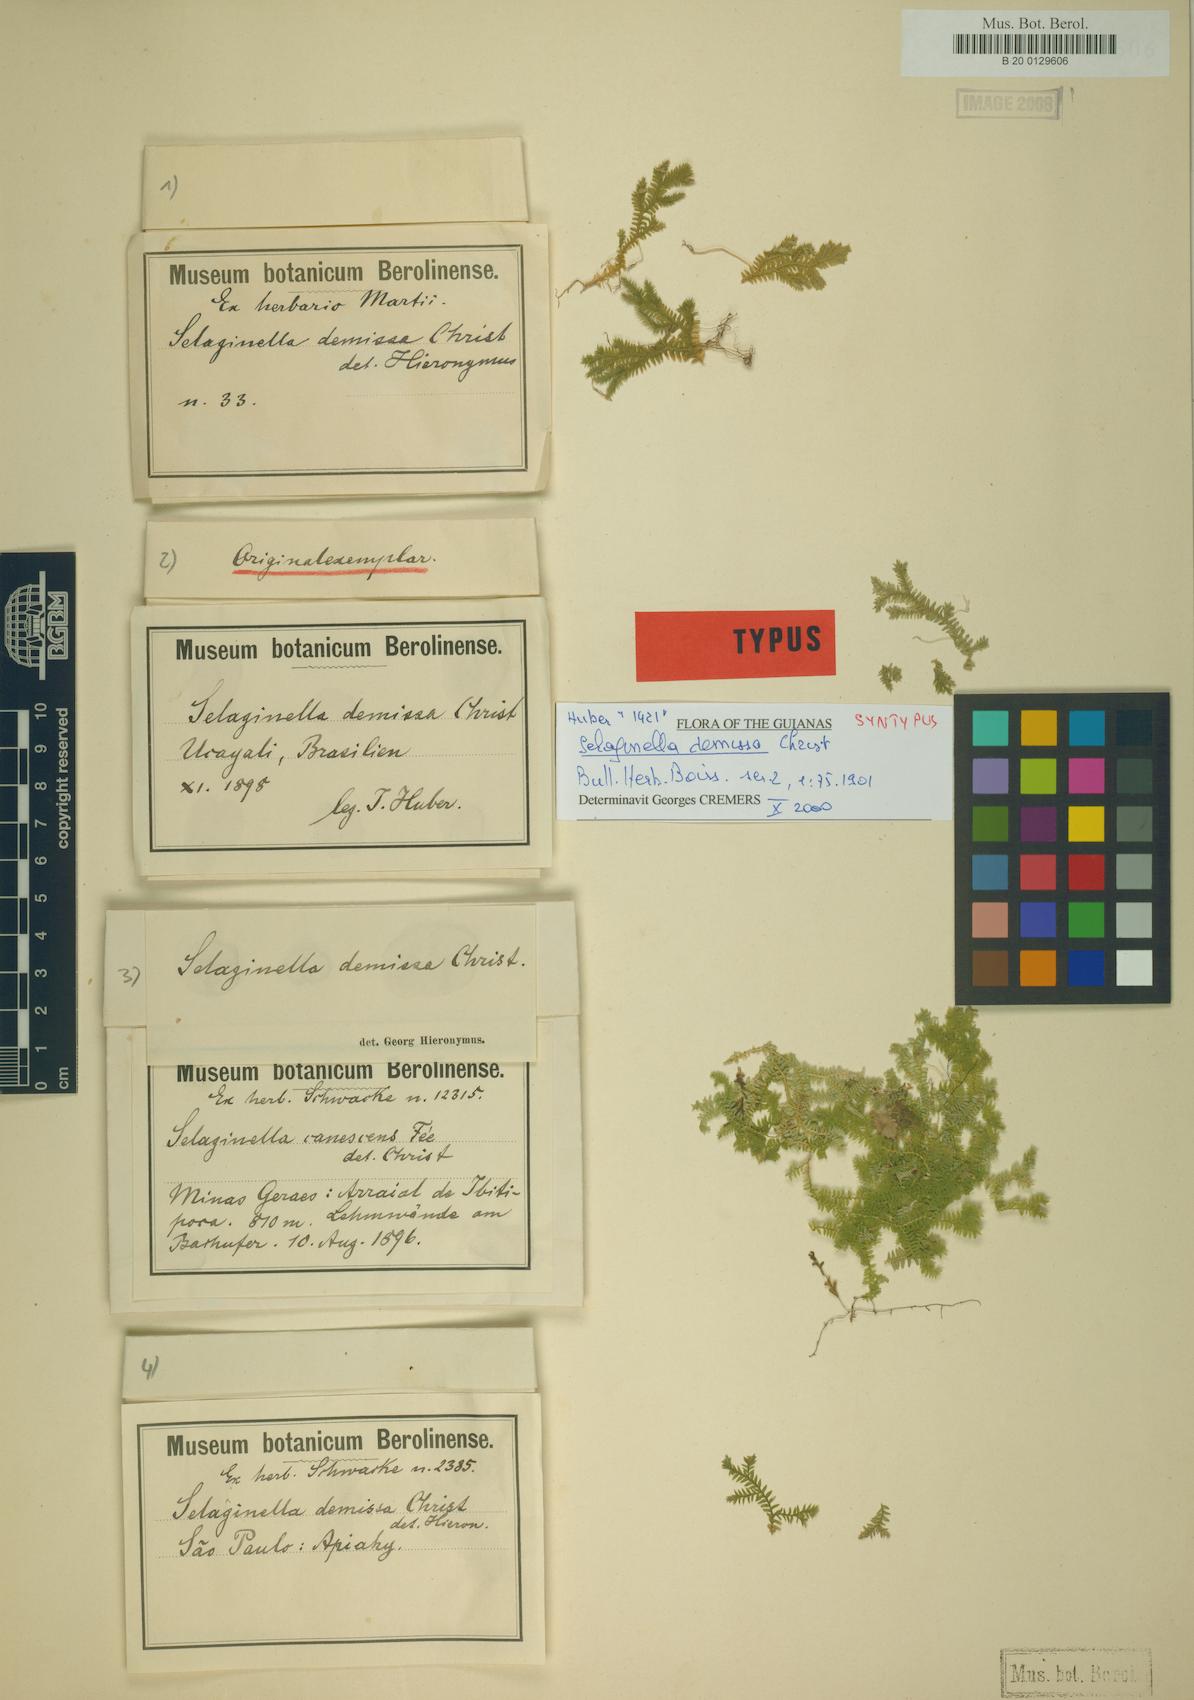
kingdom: Plantae
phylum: Tracheophyta
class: Lycopodiopsida
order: Selaginellales
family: Selaginellaceae
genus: Selaginella
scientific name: Selaginella revoluta
